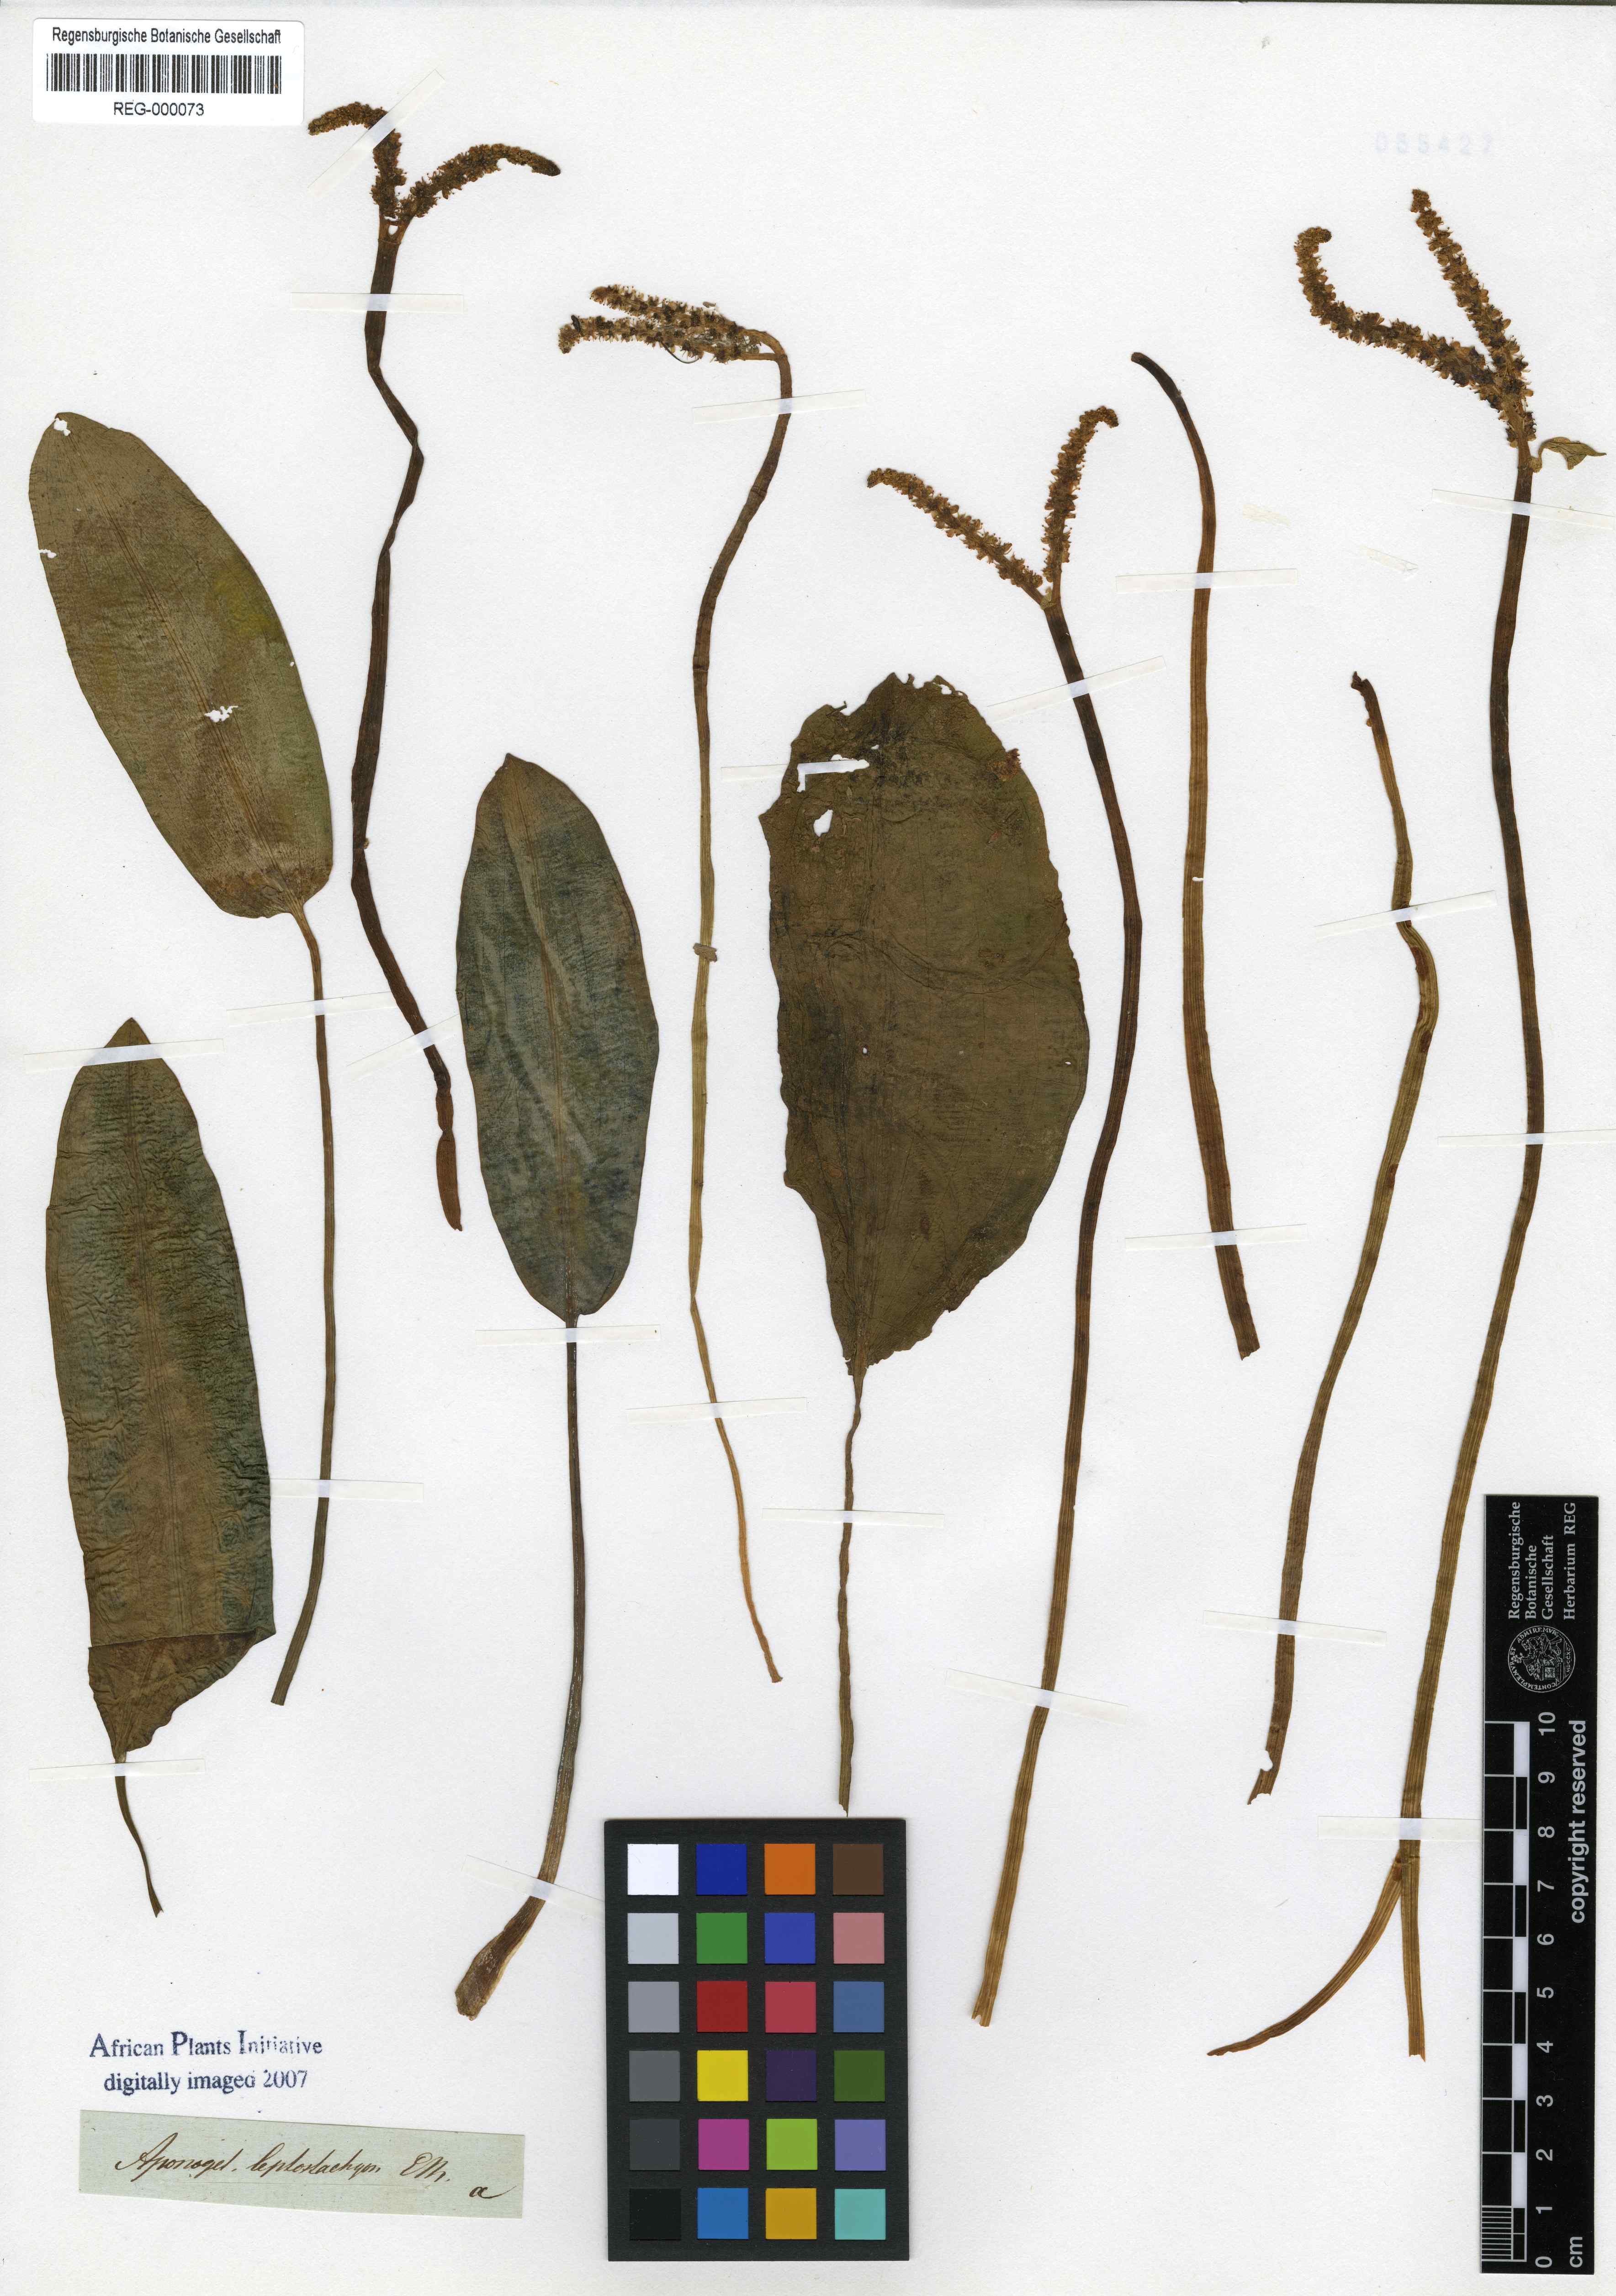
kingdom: Plantae
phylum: Tracheophyta
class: Liliopsida
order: Alismatales
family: Aponogetonaceae
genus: Aponogeton
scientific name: Aponogeton desertorum
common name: Dog-with-two-tails
